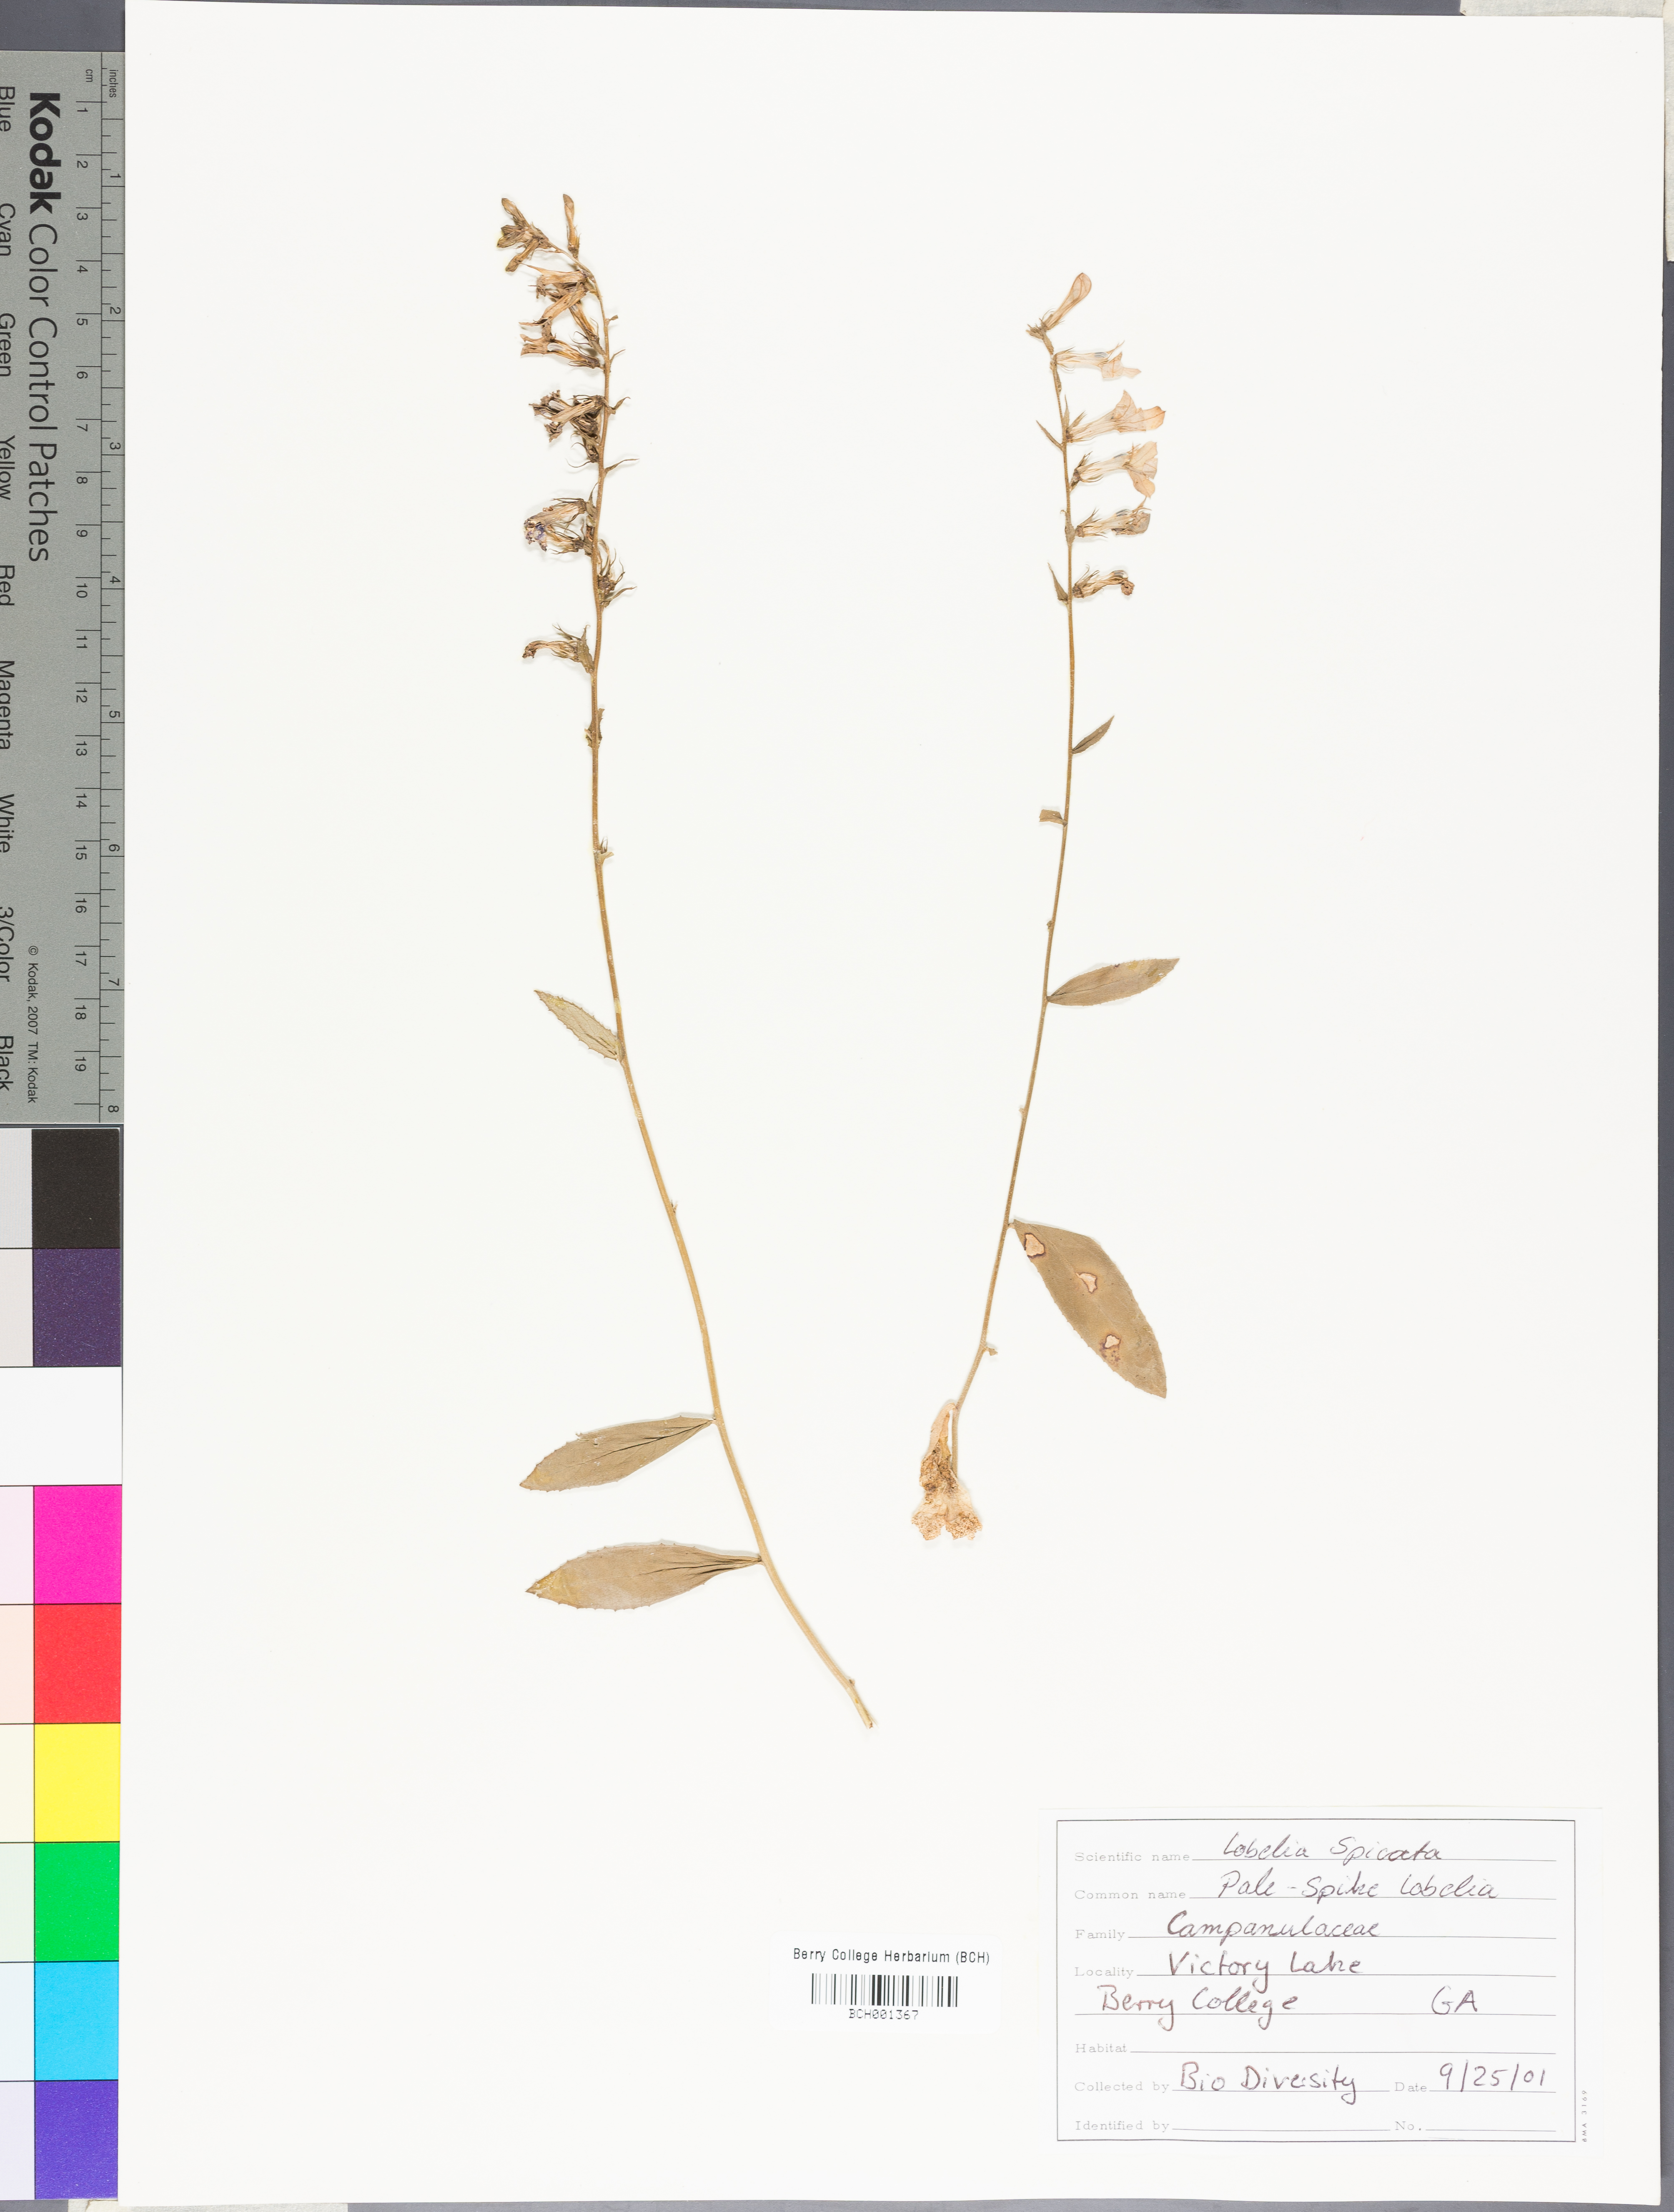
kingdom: Plantae
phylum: Tracheophyta
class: Magnoliopsida
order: Asterales
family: Campanulaceae
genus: Lobelia
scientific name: Lobelia spicata
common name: Pale-spike lobelia
